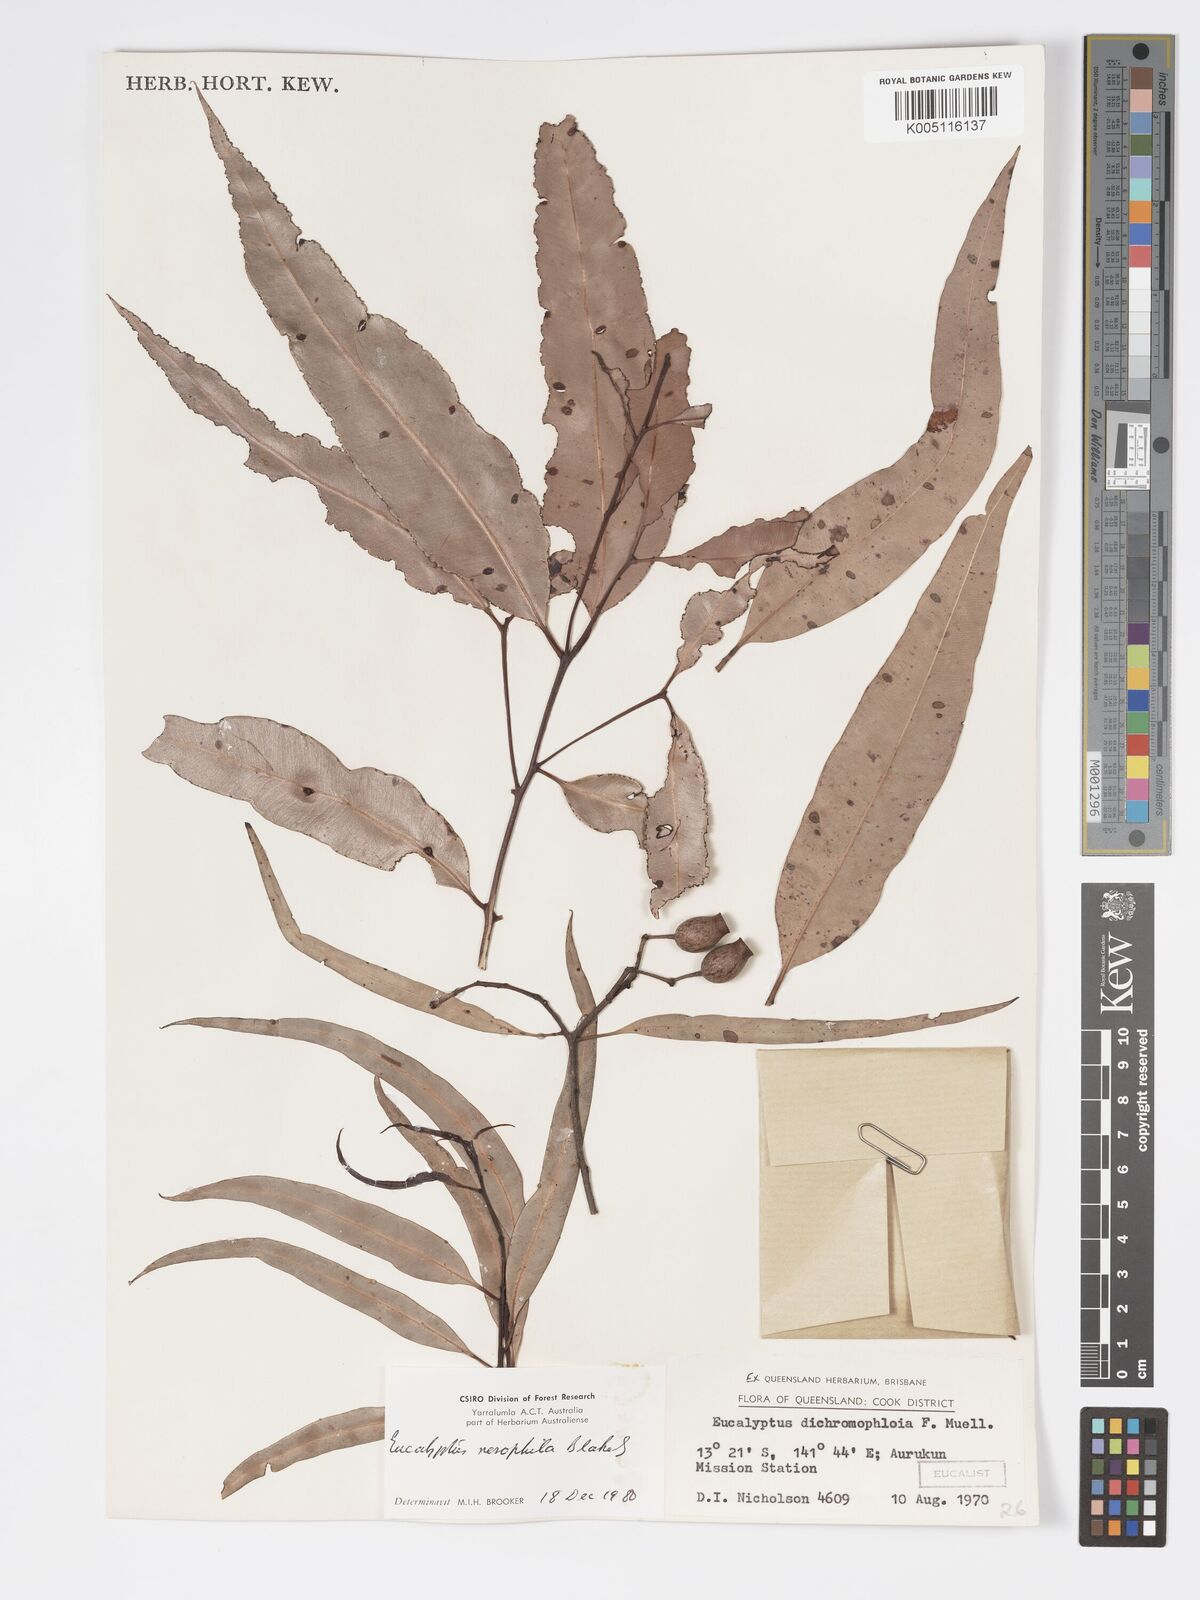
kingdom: Plantae
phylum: Tracheophyta
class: Magnoliopsida
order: Myrtales
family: Myrtaceae
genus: Corymbia
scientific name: Corymbia nesophila
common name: Melville-island-bloodwood
